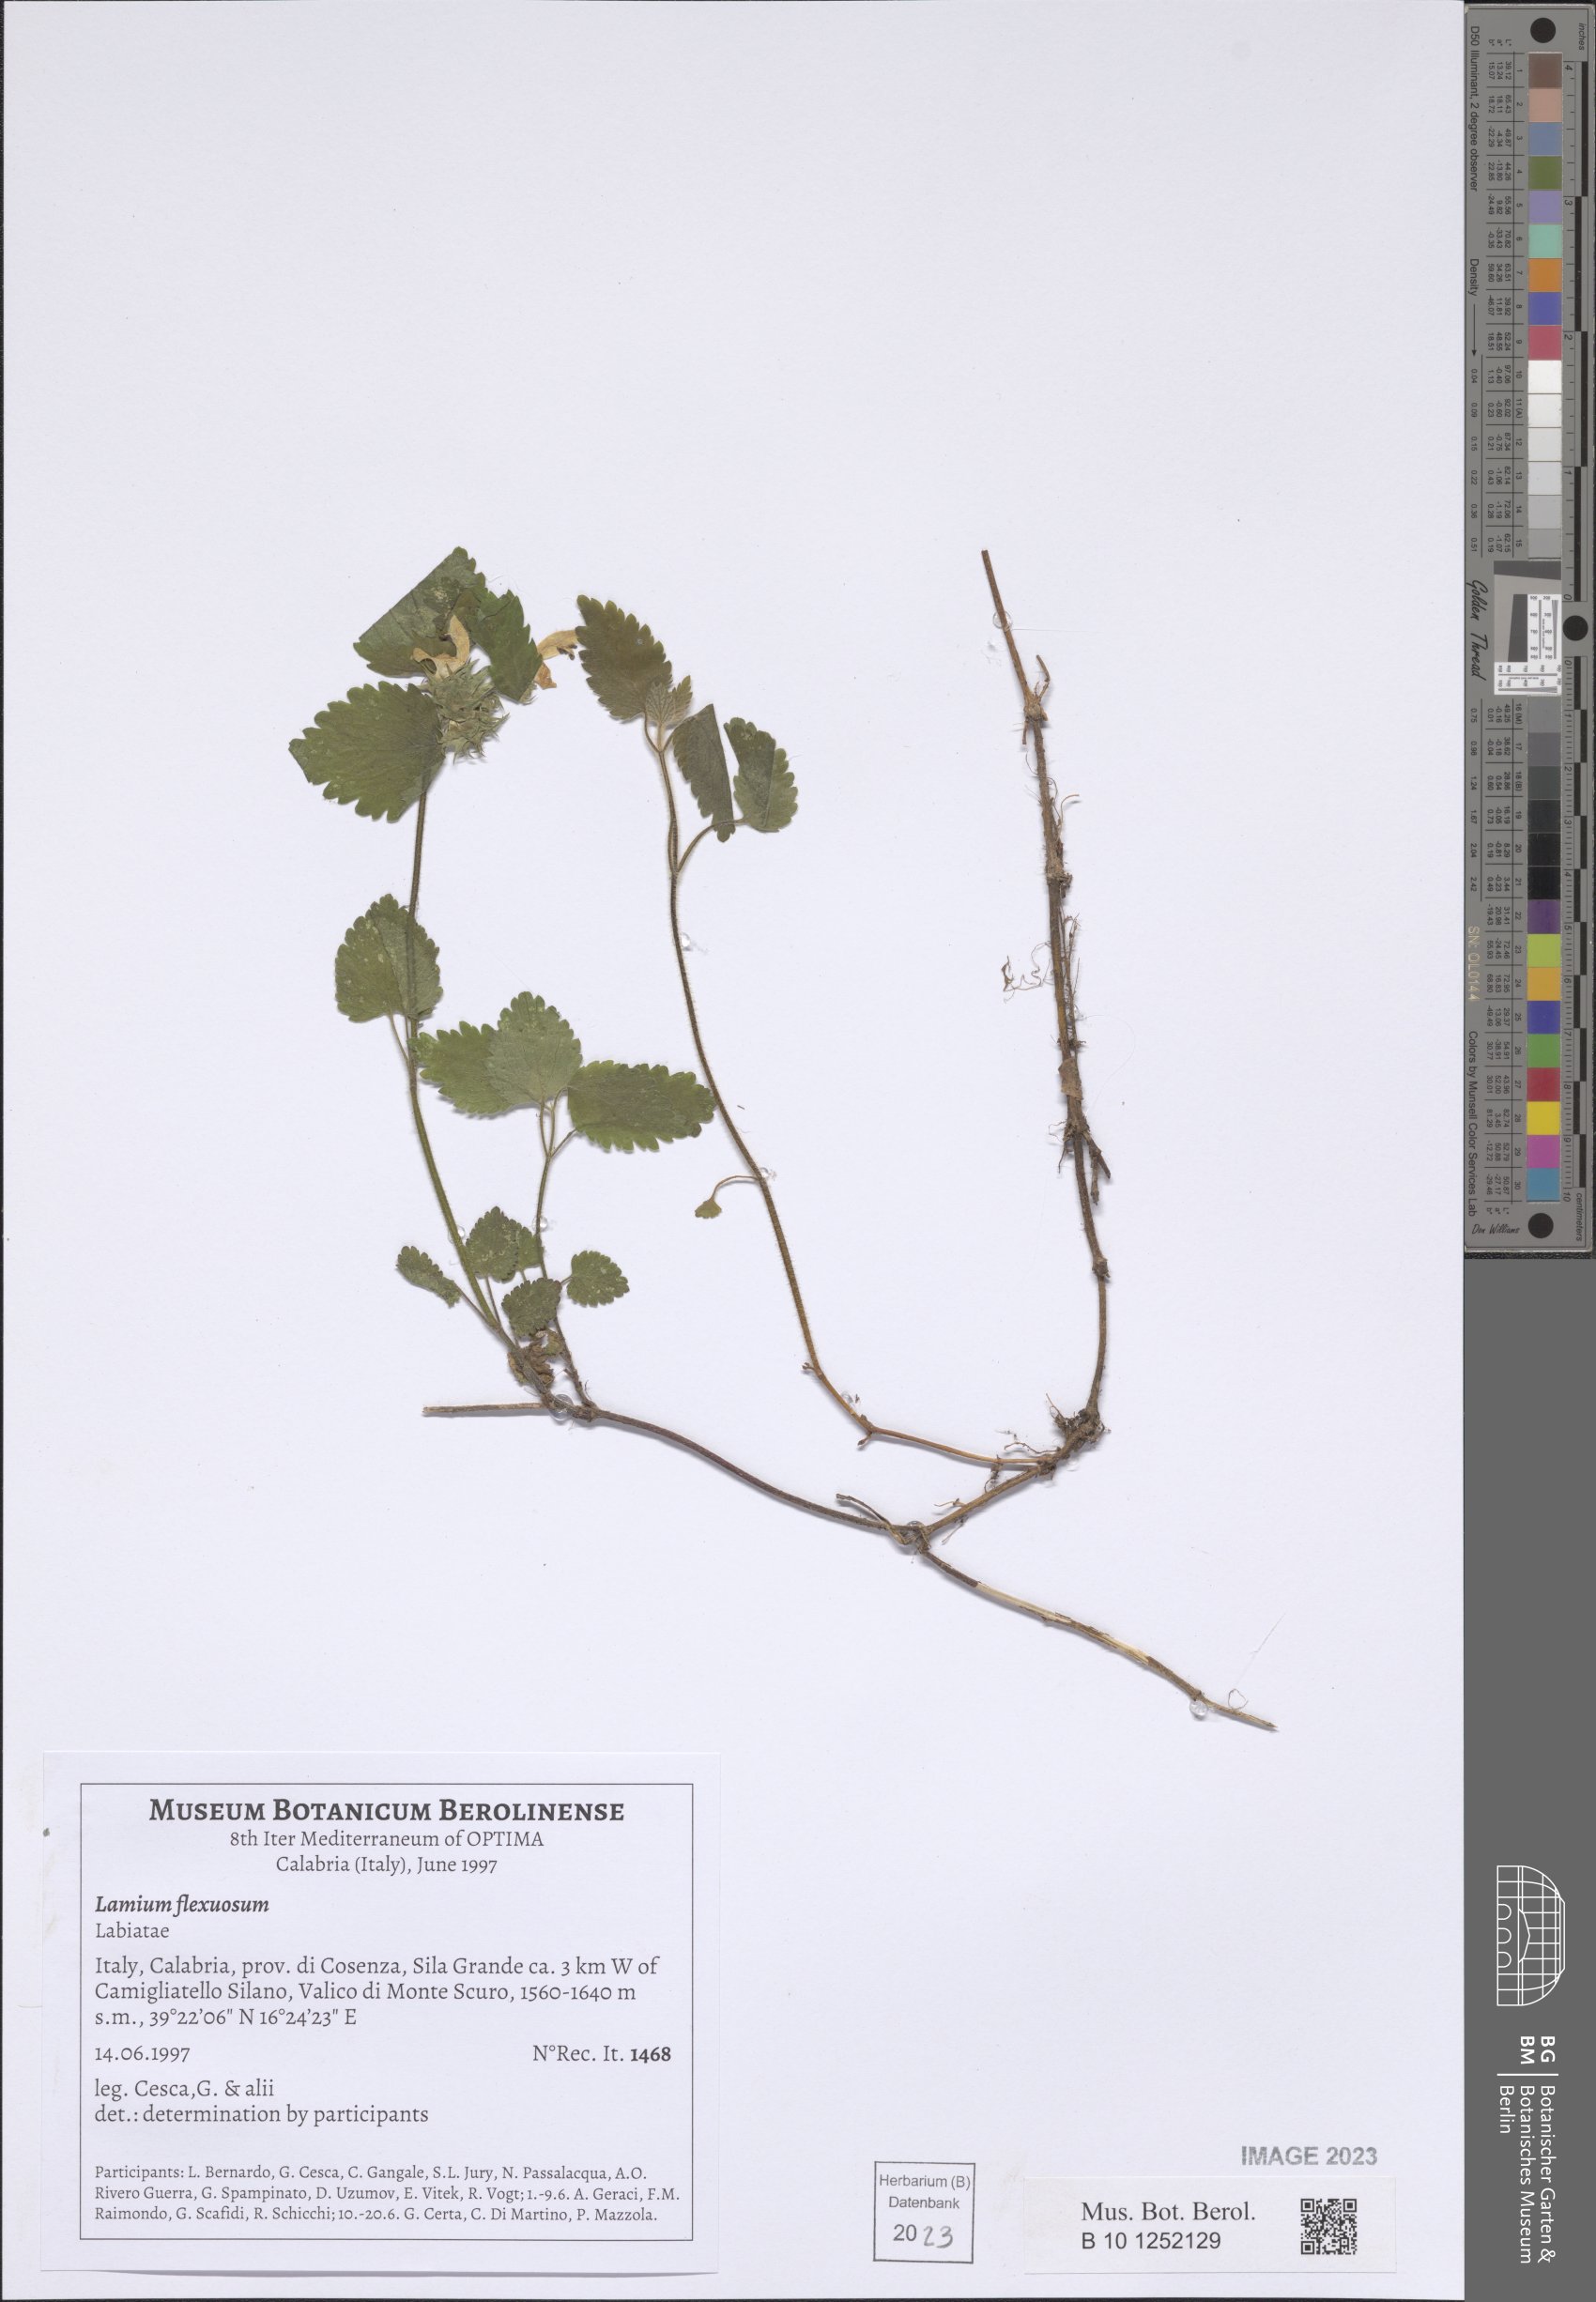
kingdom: Plantae
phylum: Tracheophyta
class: Magnoliopsida
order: Lamiales
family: Lamiaceae
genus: Lamium
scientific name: Lamium flexuosum
